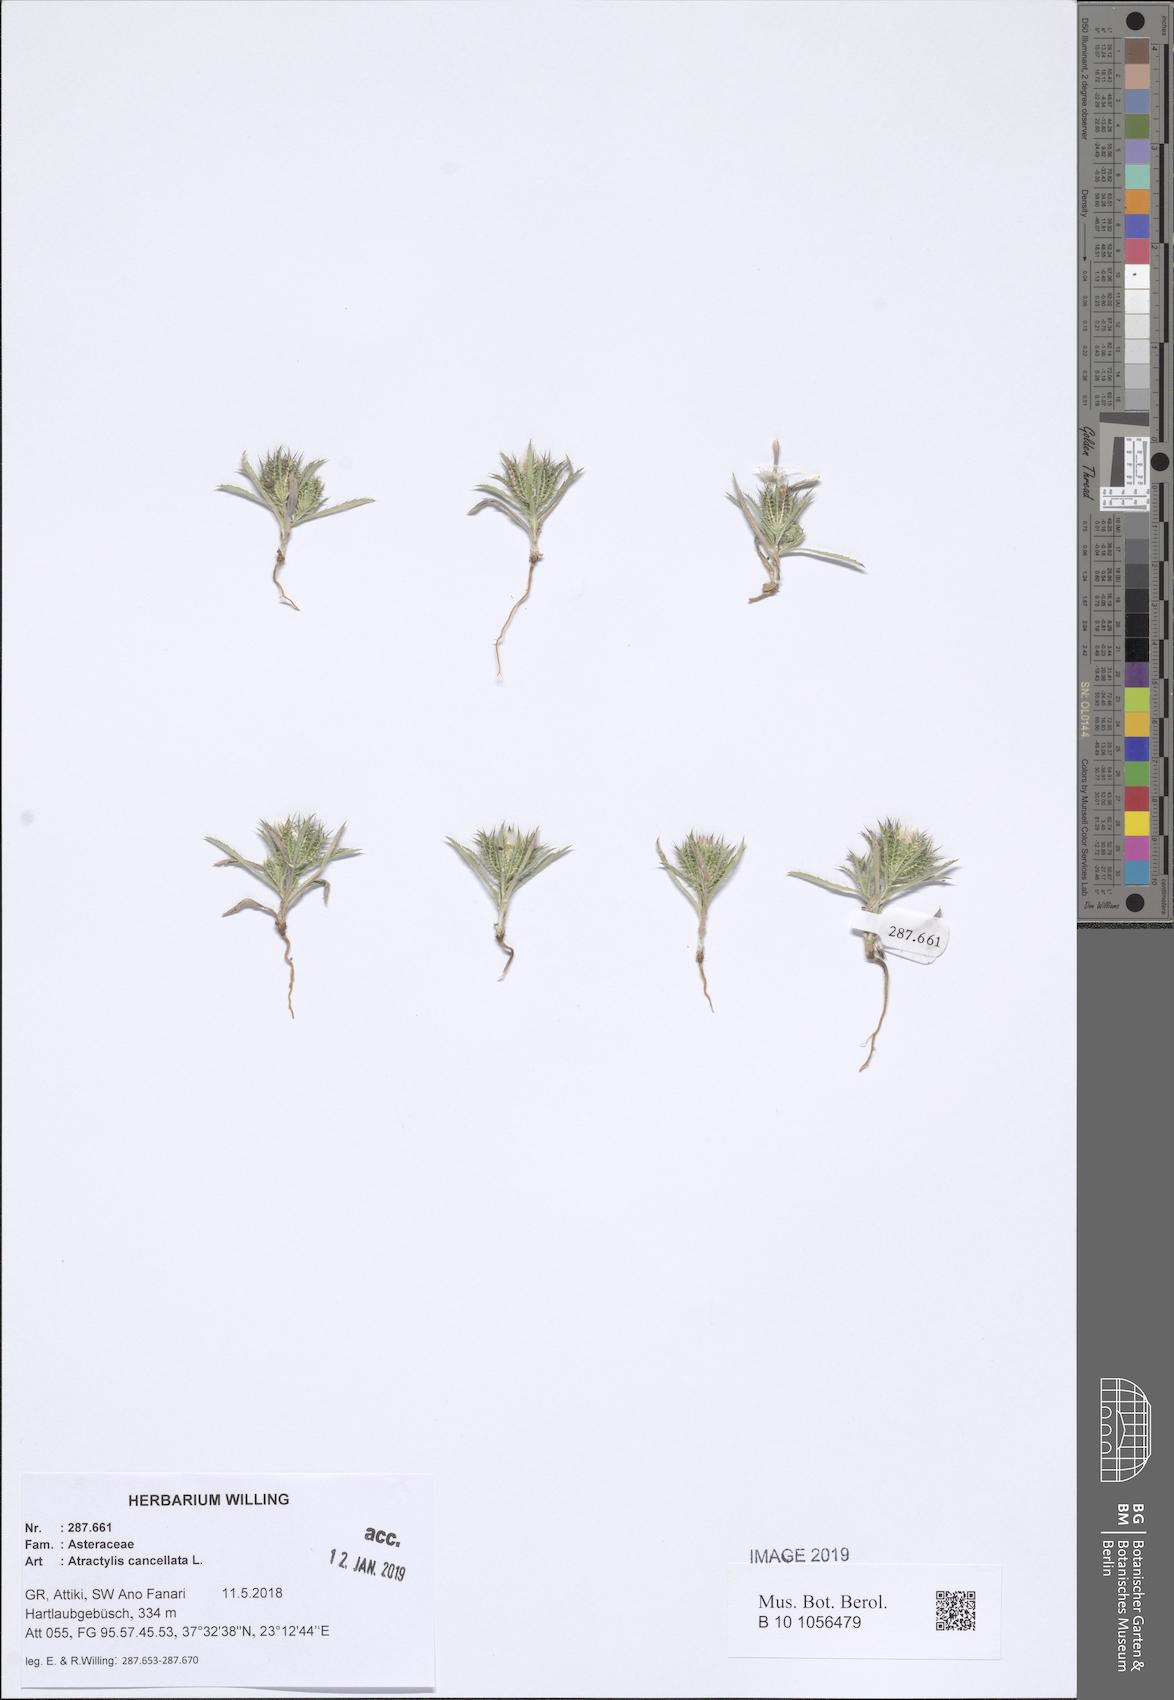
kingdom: Plantae
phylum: Tracheophyta
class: Magnoliopsida
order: Asterales
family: Asteraceae
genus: Atractylis
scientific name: Atractylis cancellata
